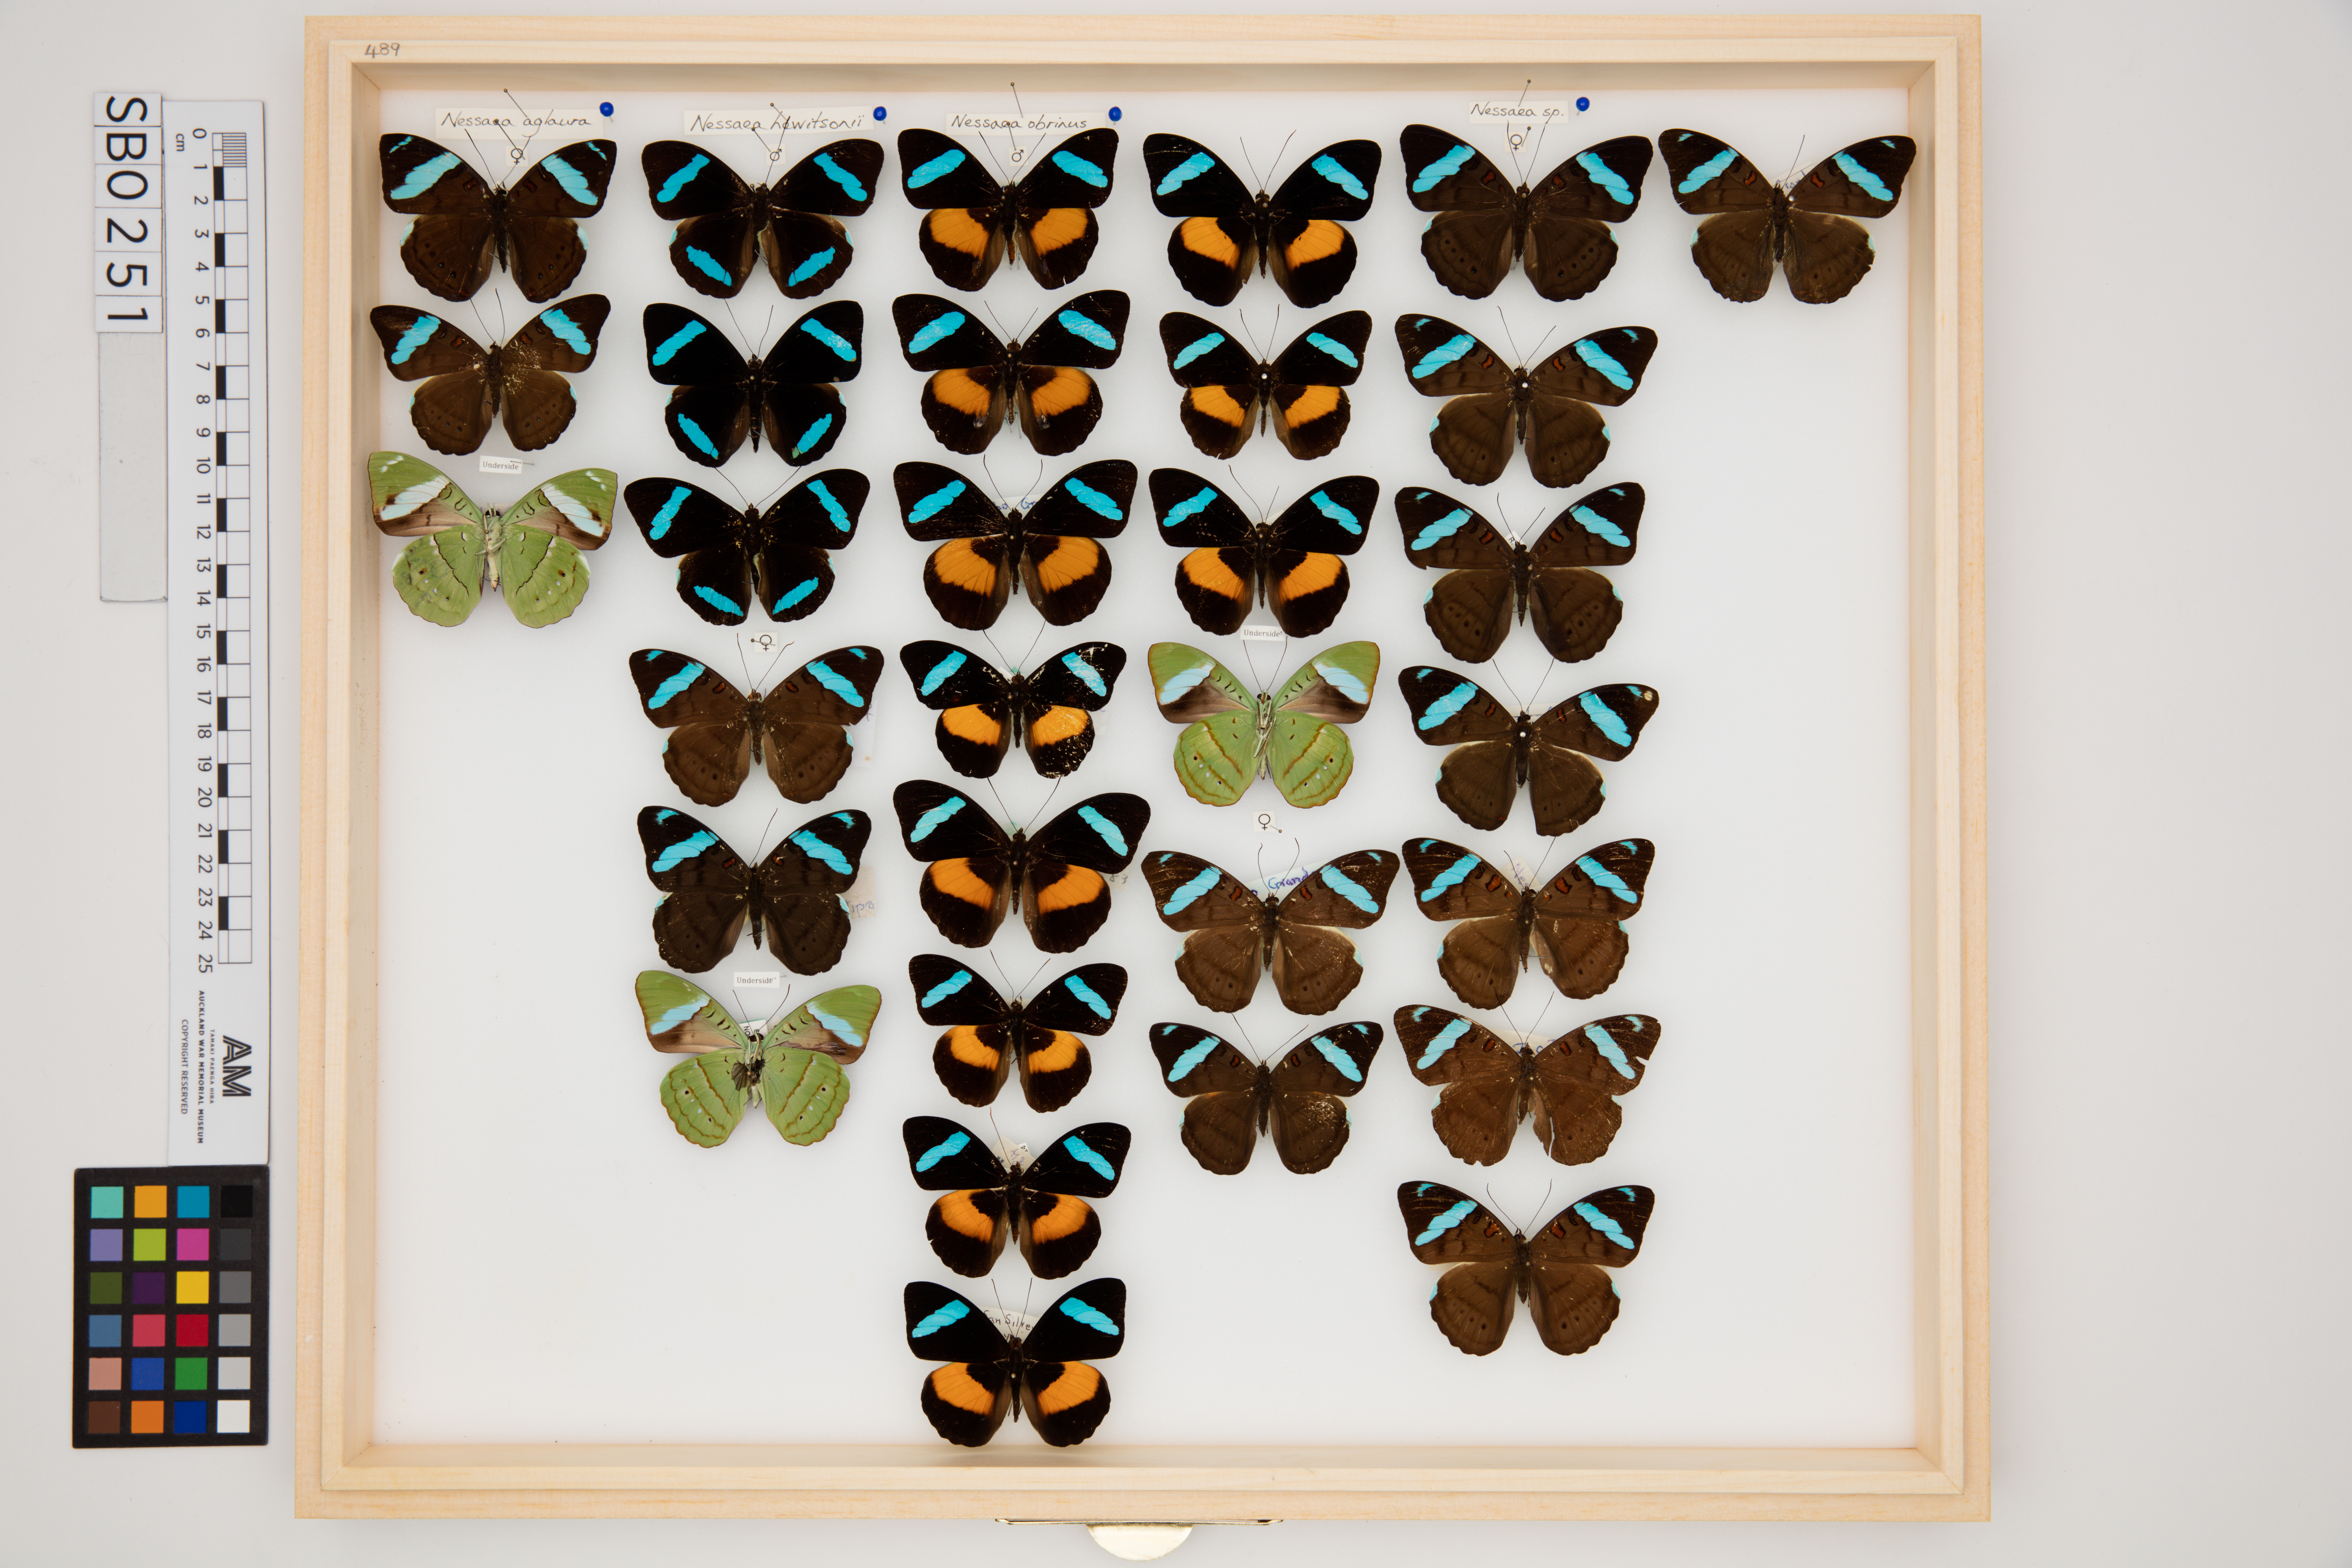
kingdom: Animalia
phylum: Arthropoda
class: Insecta
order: Lepidoptera
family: Nymphalidae
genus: Nessaea
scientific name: Nessaea hewitsonii
